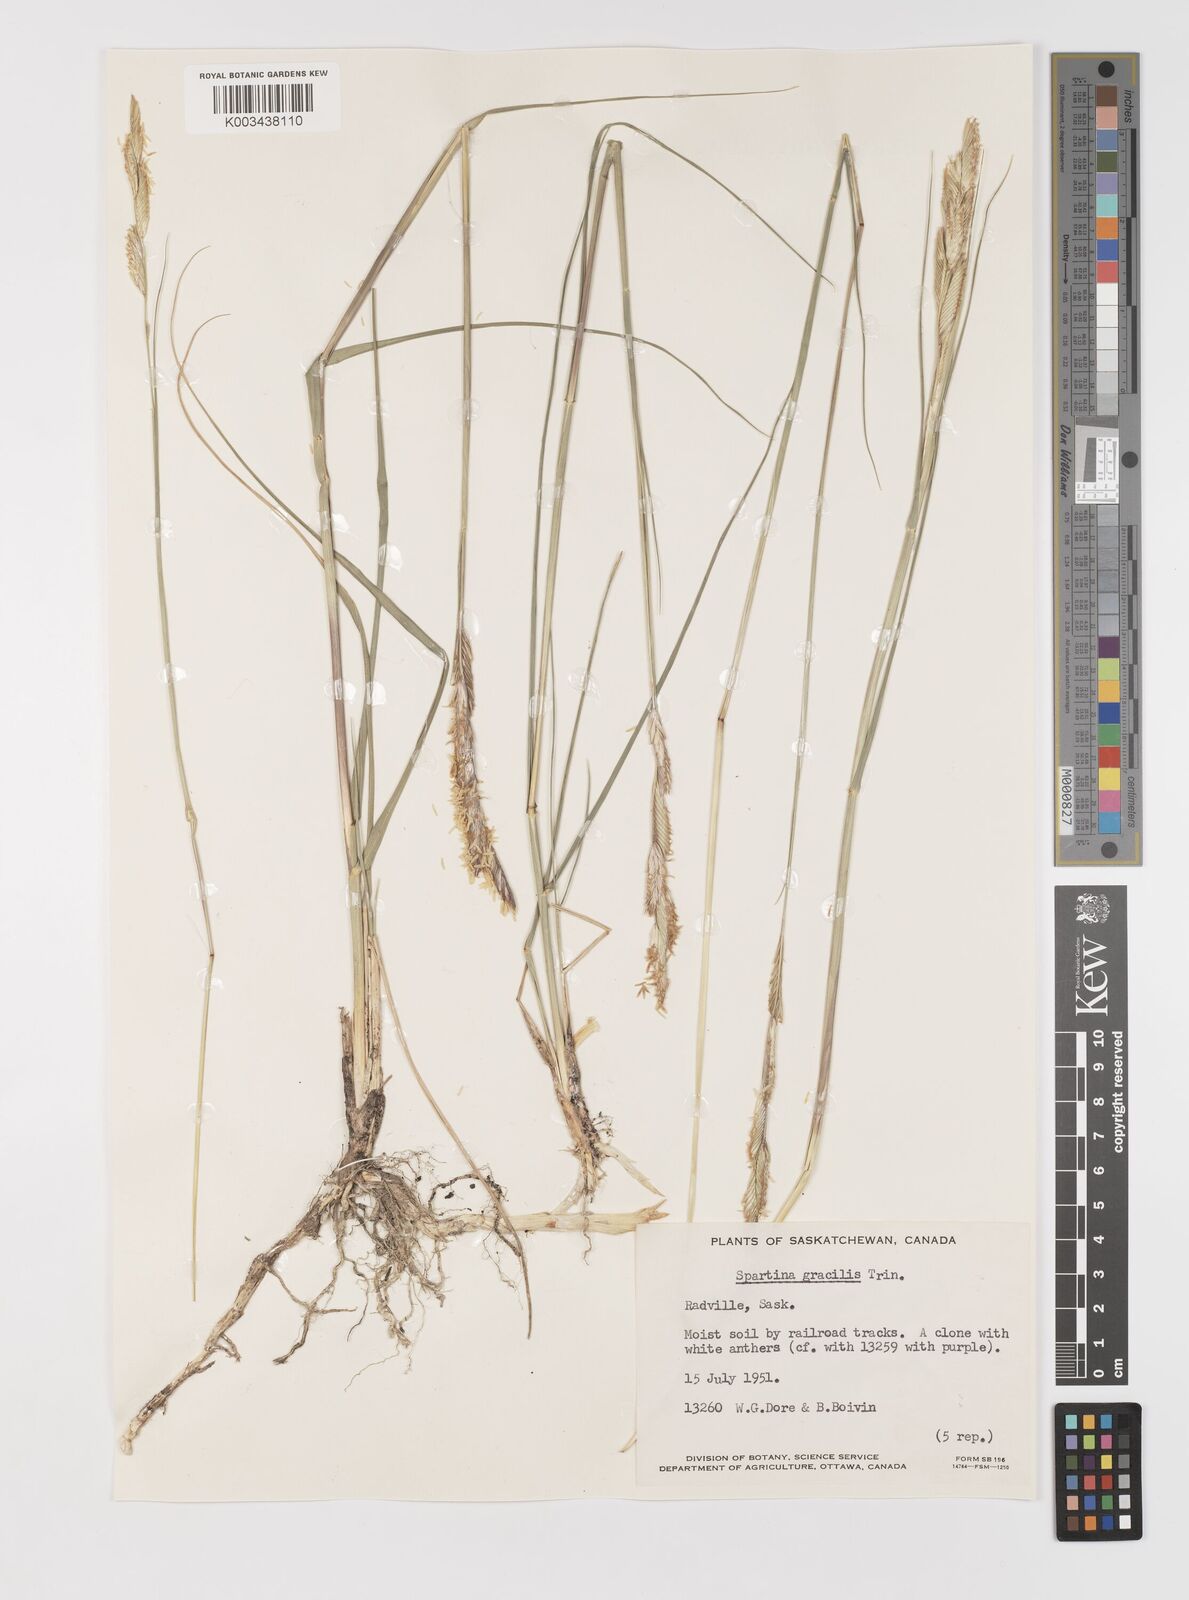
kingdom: Plantae
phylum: Tracheophyta
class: Liliopsida
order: Poales
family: Poaceae
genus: Sporobolus
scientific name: Sporobolus hookerianus
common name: Alkali cordgrass
